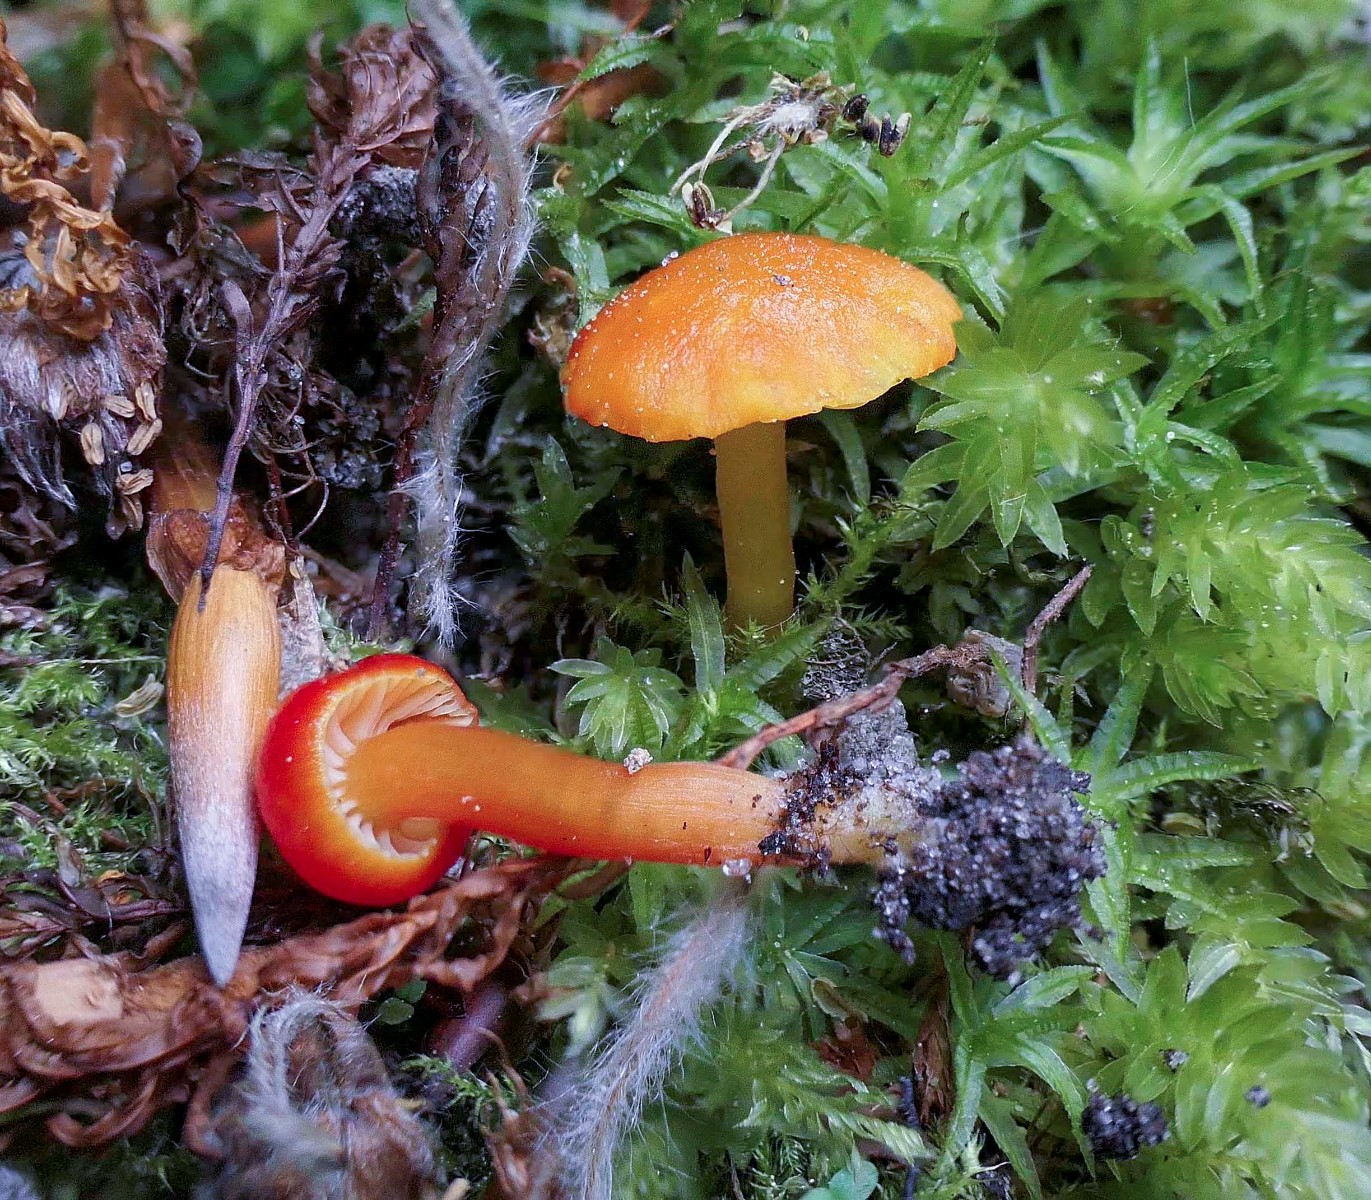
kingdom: Fungi
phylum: Basidiomycota
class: Agaricomycetes
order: Agaricales
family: Hygrophoraceae
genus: Hygrocybe
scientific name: Hygrocybe insipida
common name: liden vokshat
